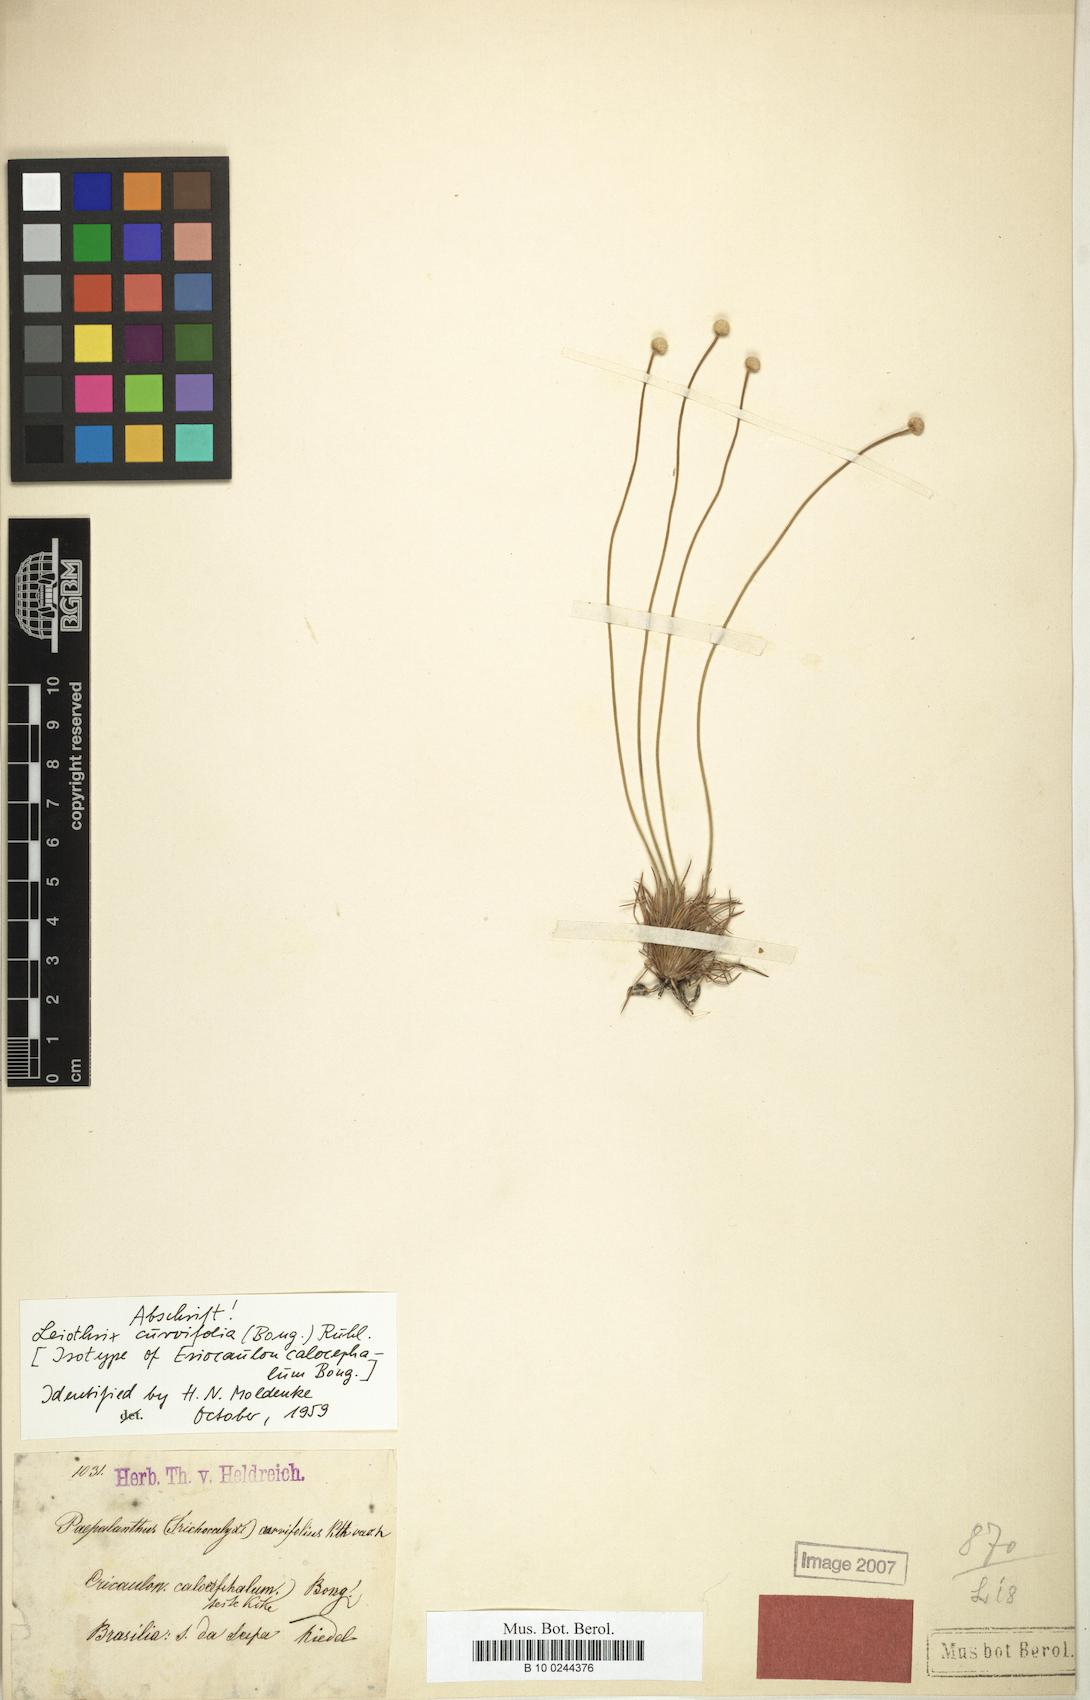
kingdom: Plantae
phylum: Tracheophyta
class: Liliopsida
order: Poales
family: Eriocaulaceae
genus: Leiothrix
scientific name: Leiothrix curvifolia
